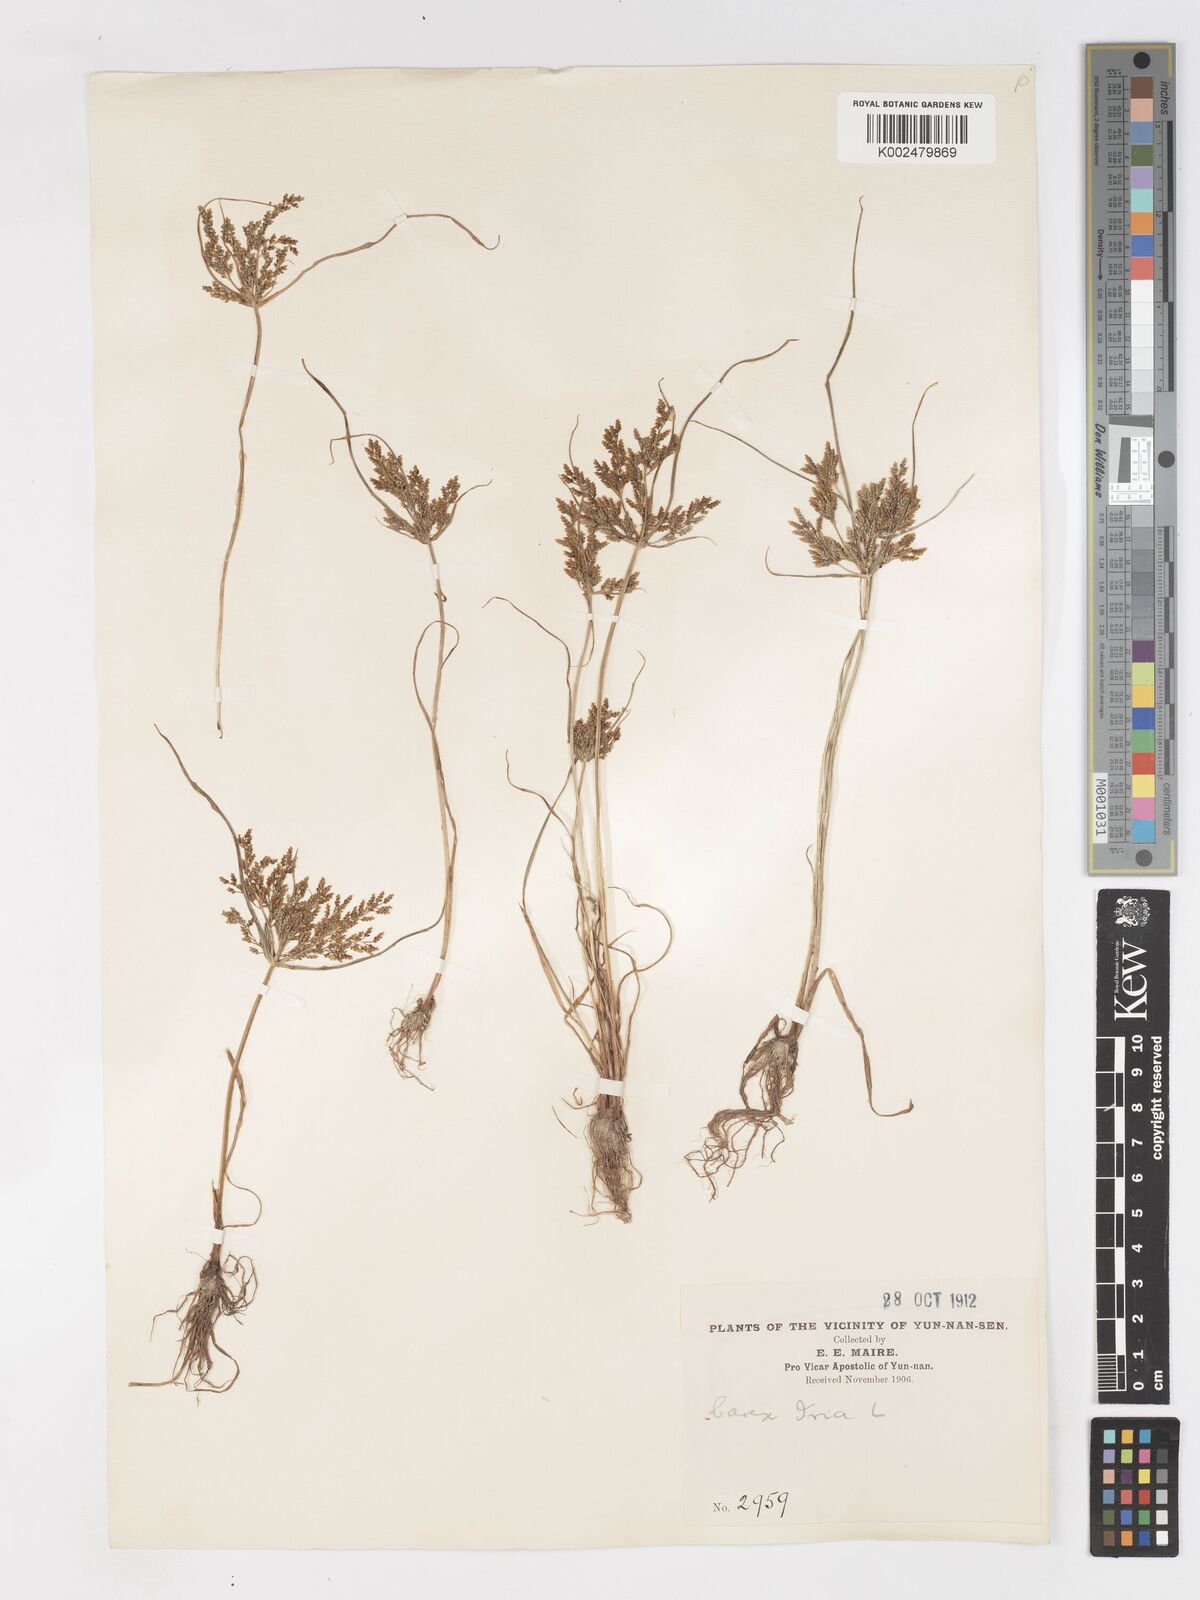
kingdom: Plantae
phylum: Tracheophyta
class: Liliopsida
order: Poales
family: Cyperaceae
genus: Cyperus
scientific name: Cyperus iria
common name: Ricefield flatsedge
